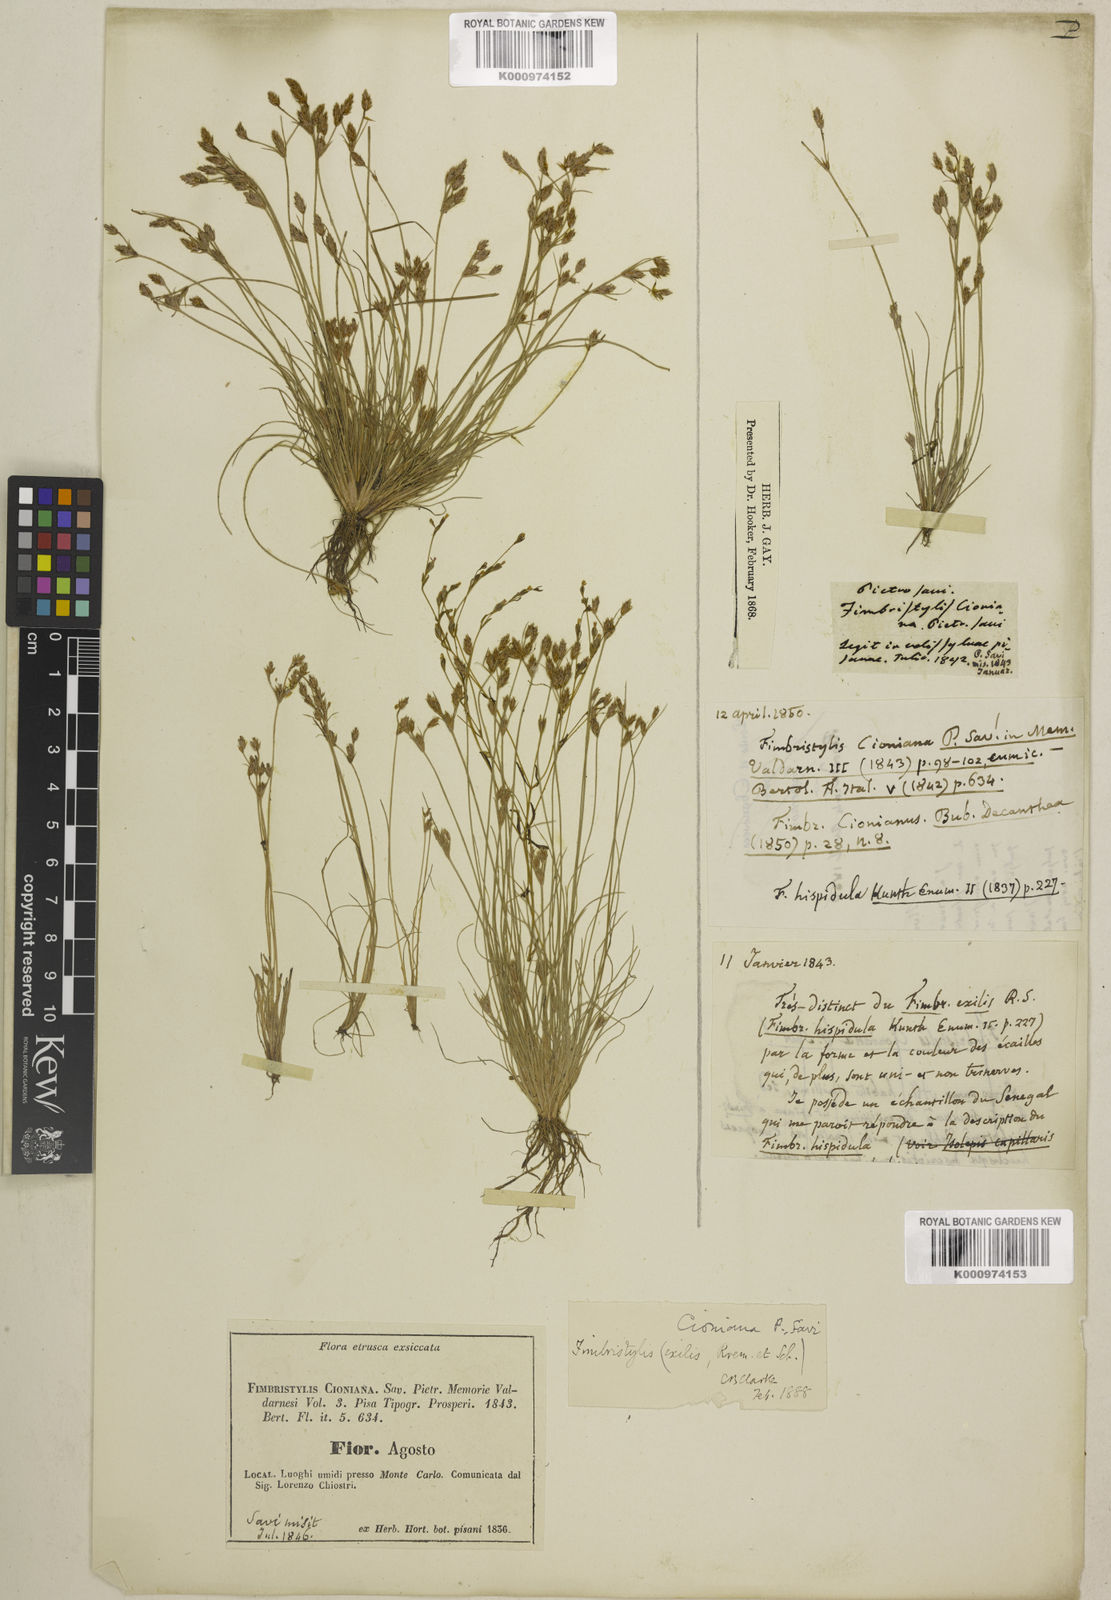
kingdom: Plantae
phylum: Tracheophyta
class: Liliopsida
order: Poales
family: Cyperaceae
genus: Bulbostylis
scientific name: Bulbostylis cioniana
